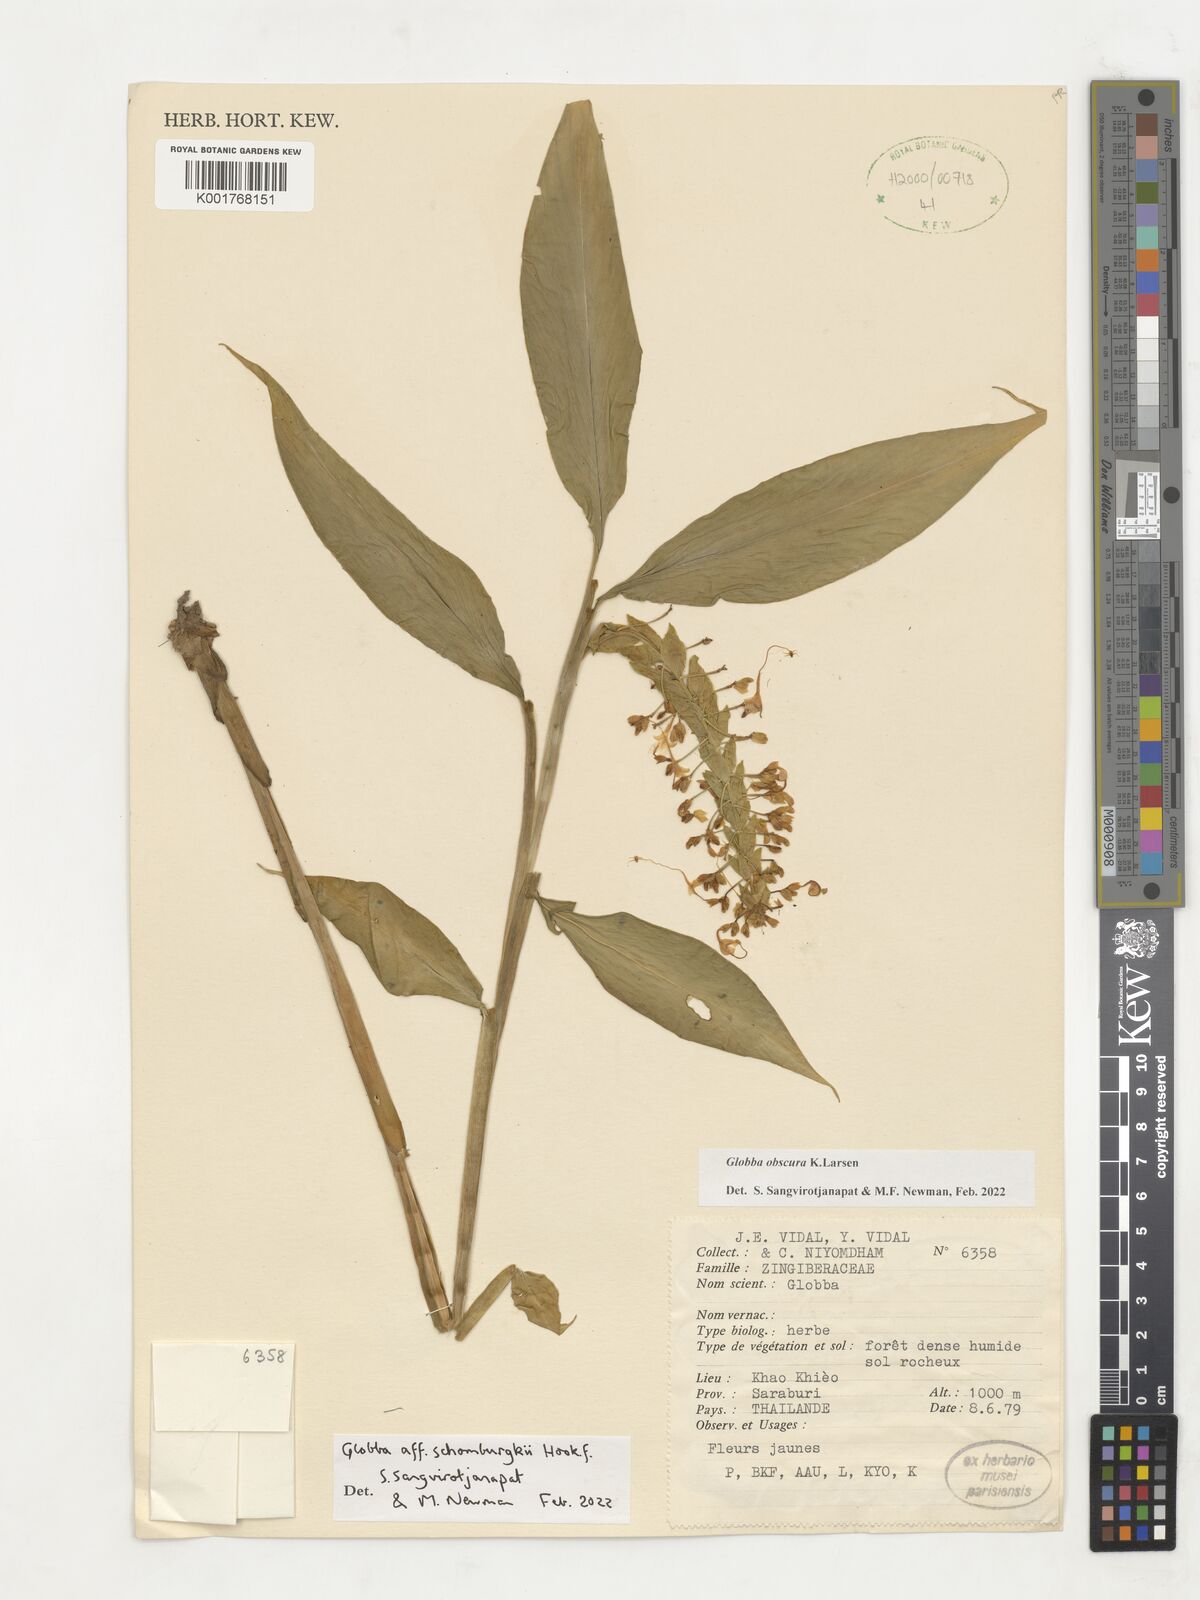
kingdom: Plantae
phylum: Tracheophyta
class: Liliopsida
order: Zingiberales
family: Zingiberaceae
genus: Globba
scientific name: Globba obscura
